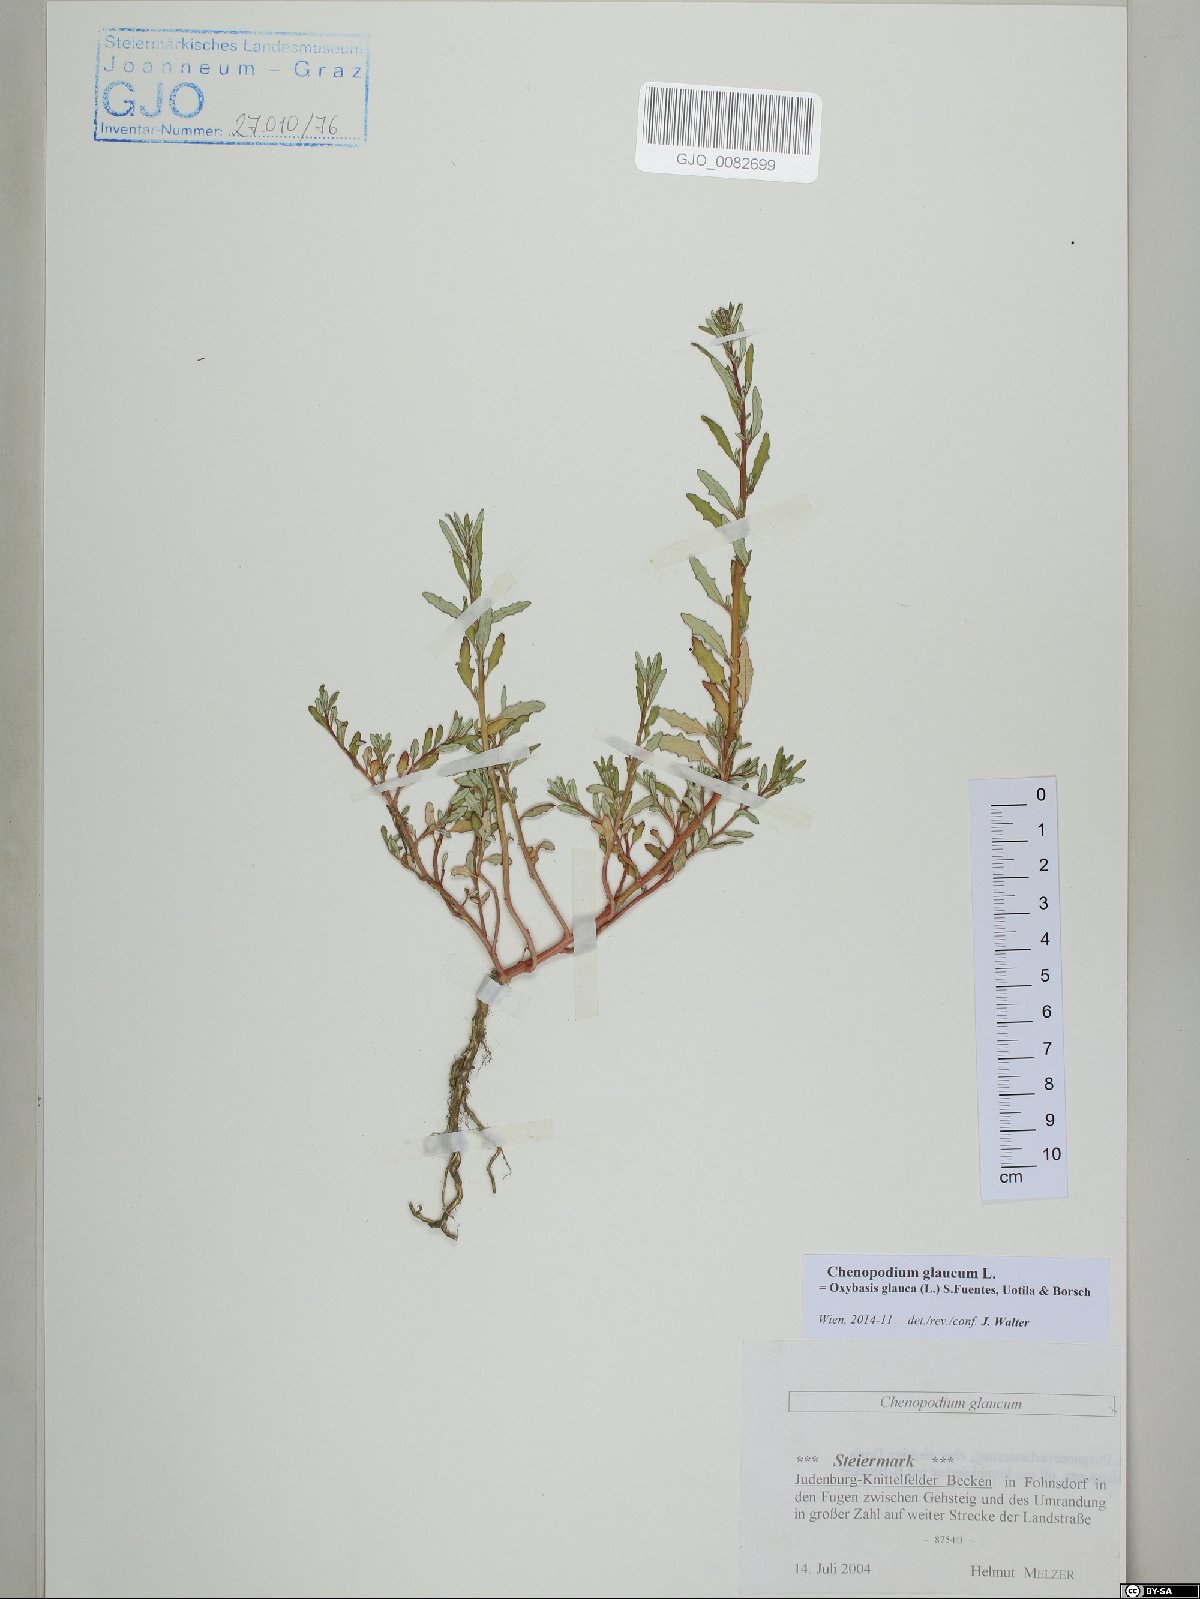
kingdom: Plantae
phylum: Tracheophyta
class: Magnoliopsida
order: Caryophyllales
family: Amaranthaceae
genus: Oxybasis
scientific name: Oxybasis glauca
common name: Glaucous goosefoot
